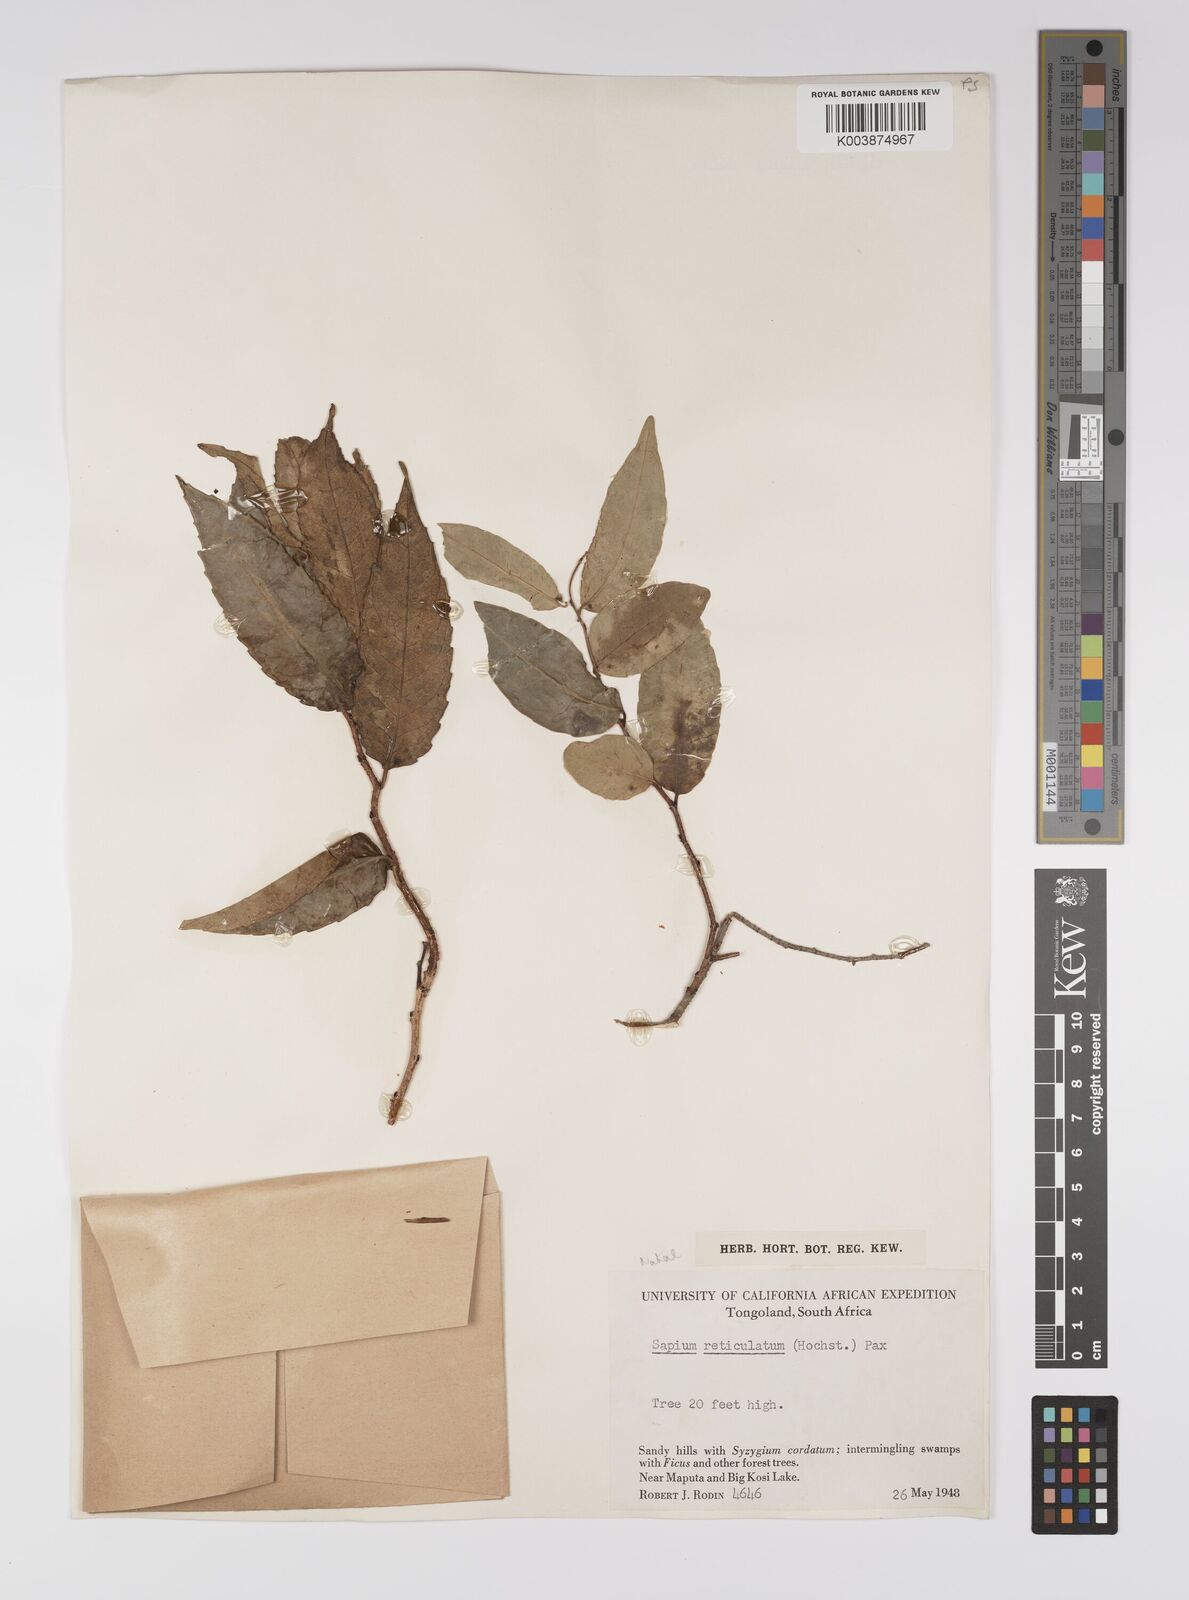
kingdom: Plantae
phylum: Tracheophyta
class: Magnoliopsida
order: Malpighiales
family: Euphorbiaceae
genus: Shirakiopsis
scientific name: Shirakiopsis elliptica
